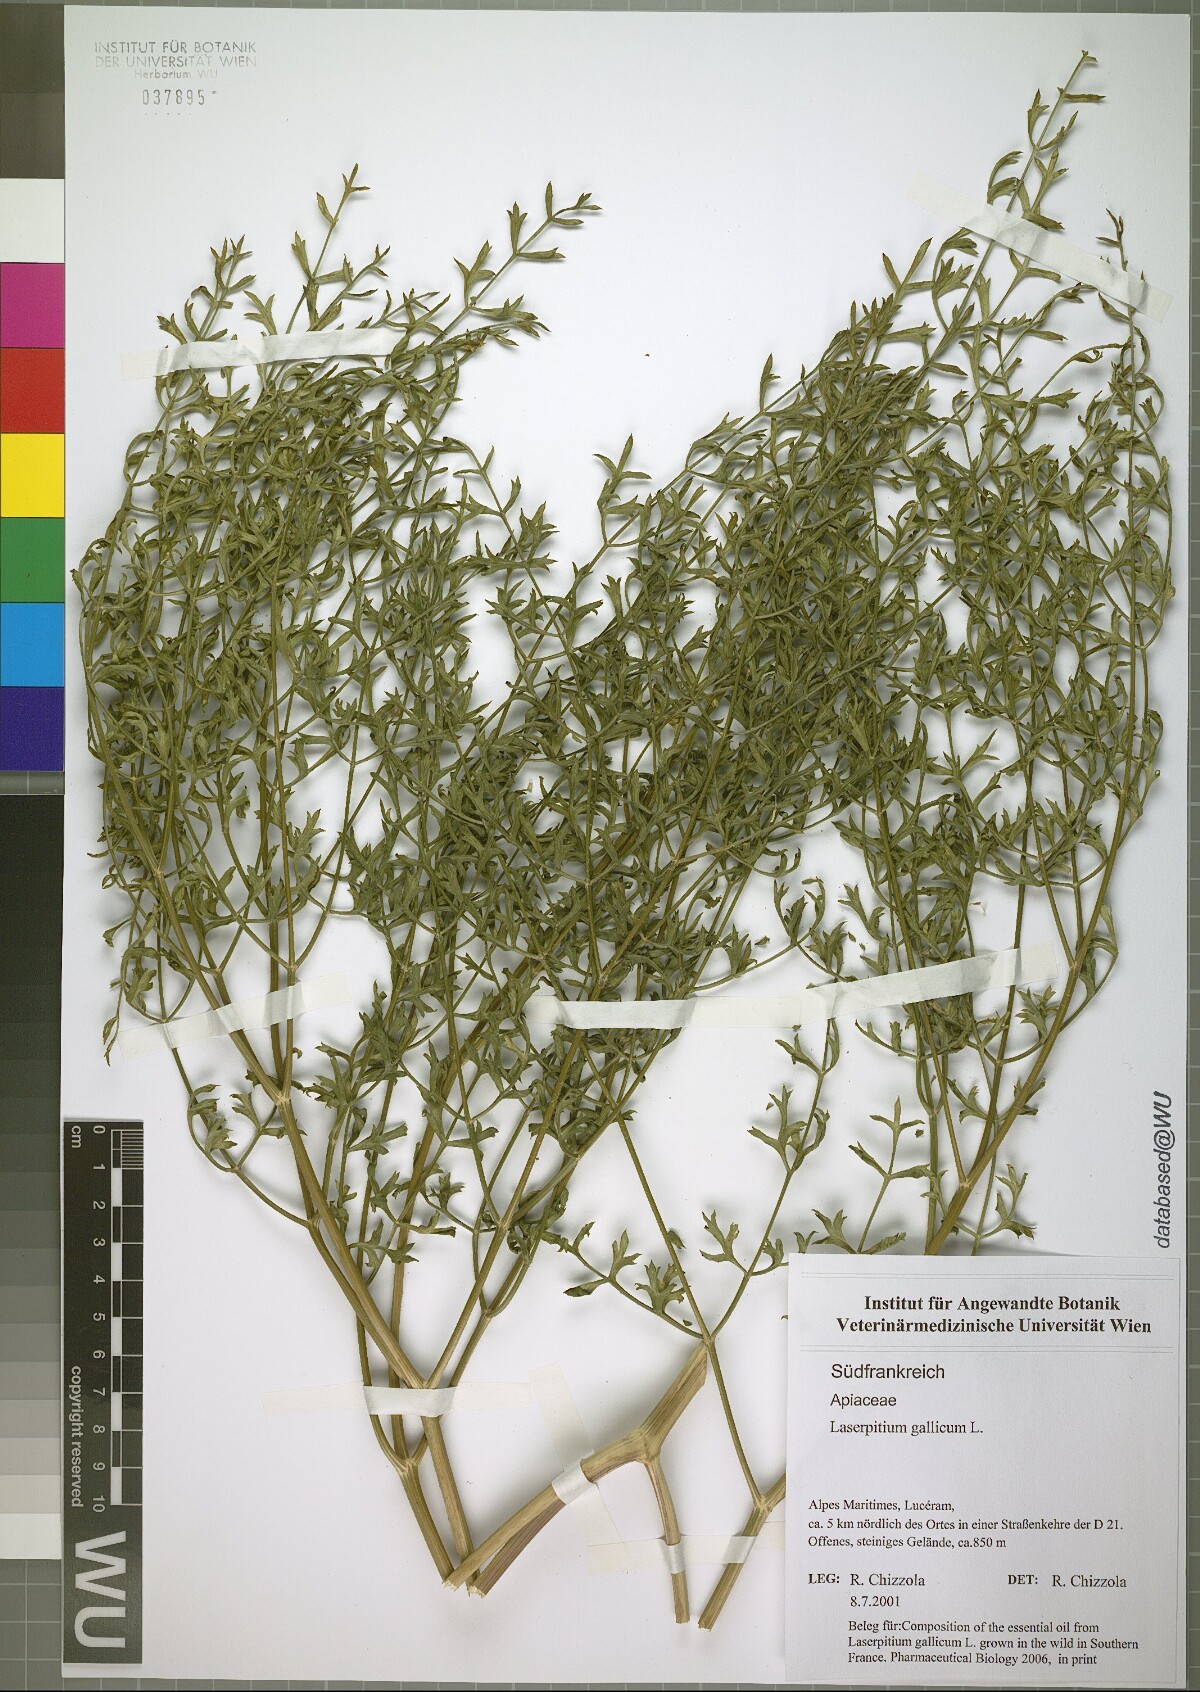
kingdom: Plantae
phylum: Tracheophyta
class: Magnoliopsida
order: Apiales
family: Apiaceae
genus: Laserpitium
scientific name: Laserpitium gallicum
